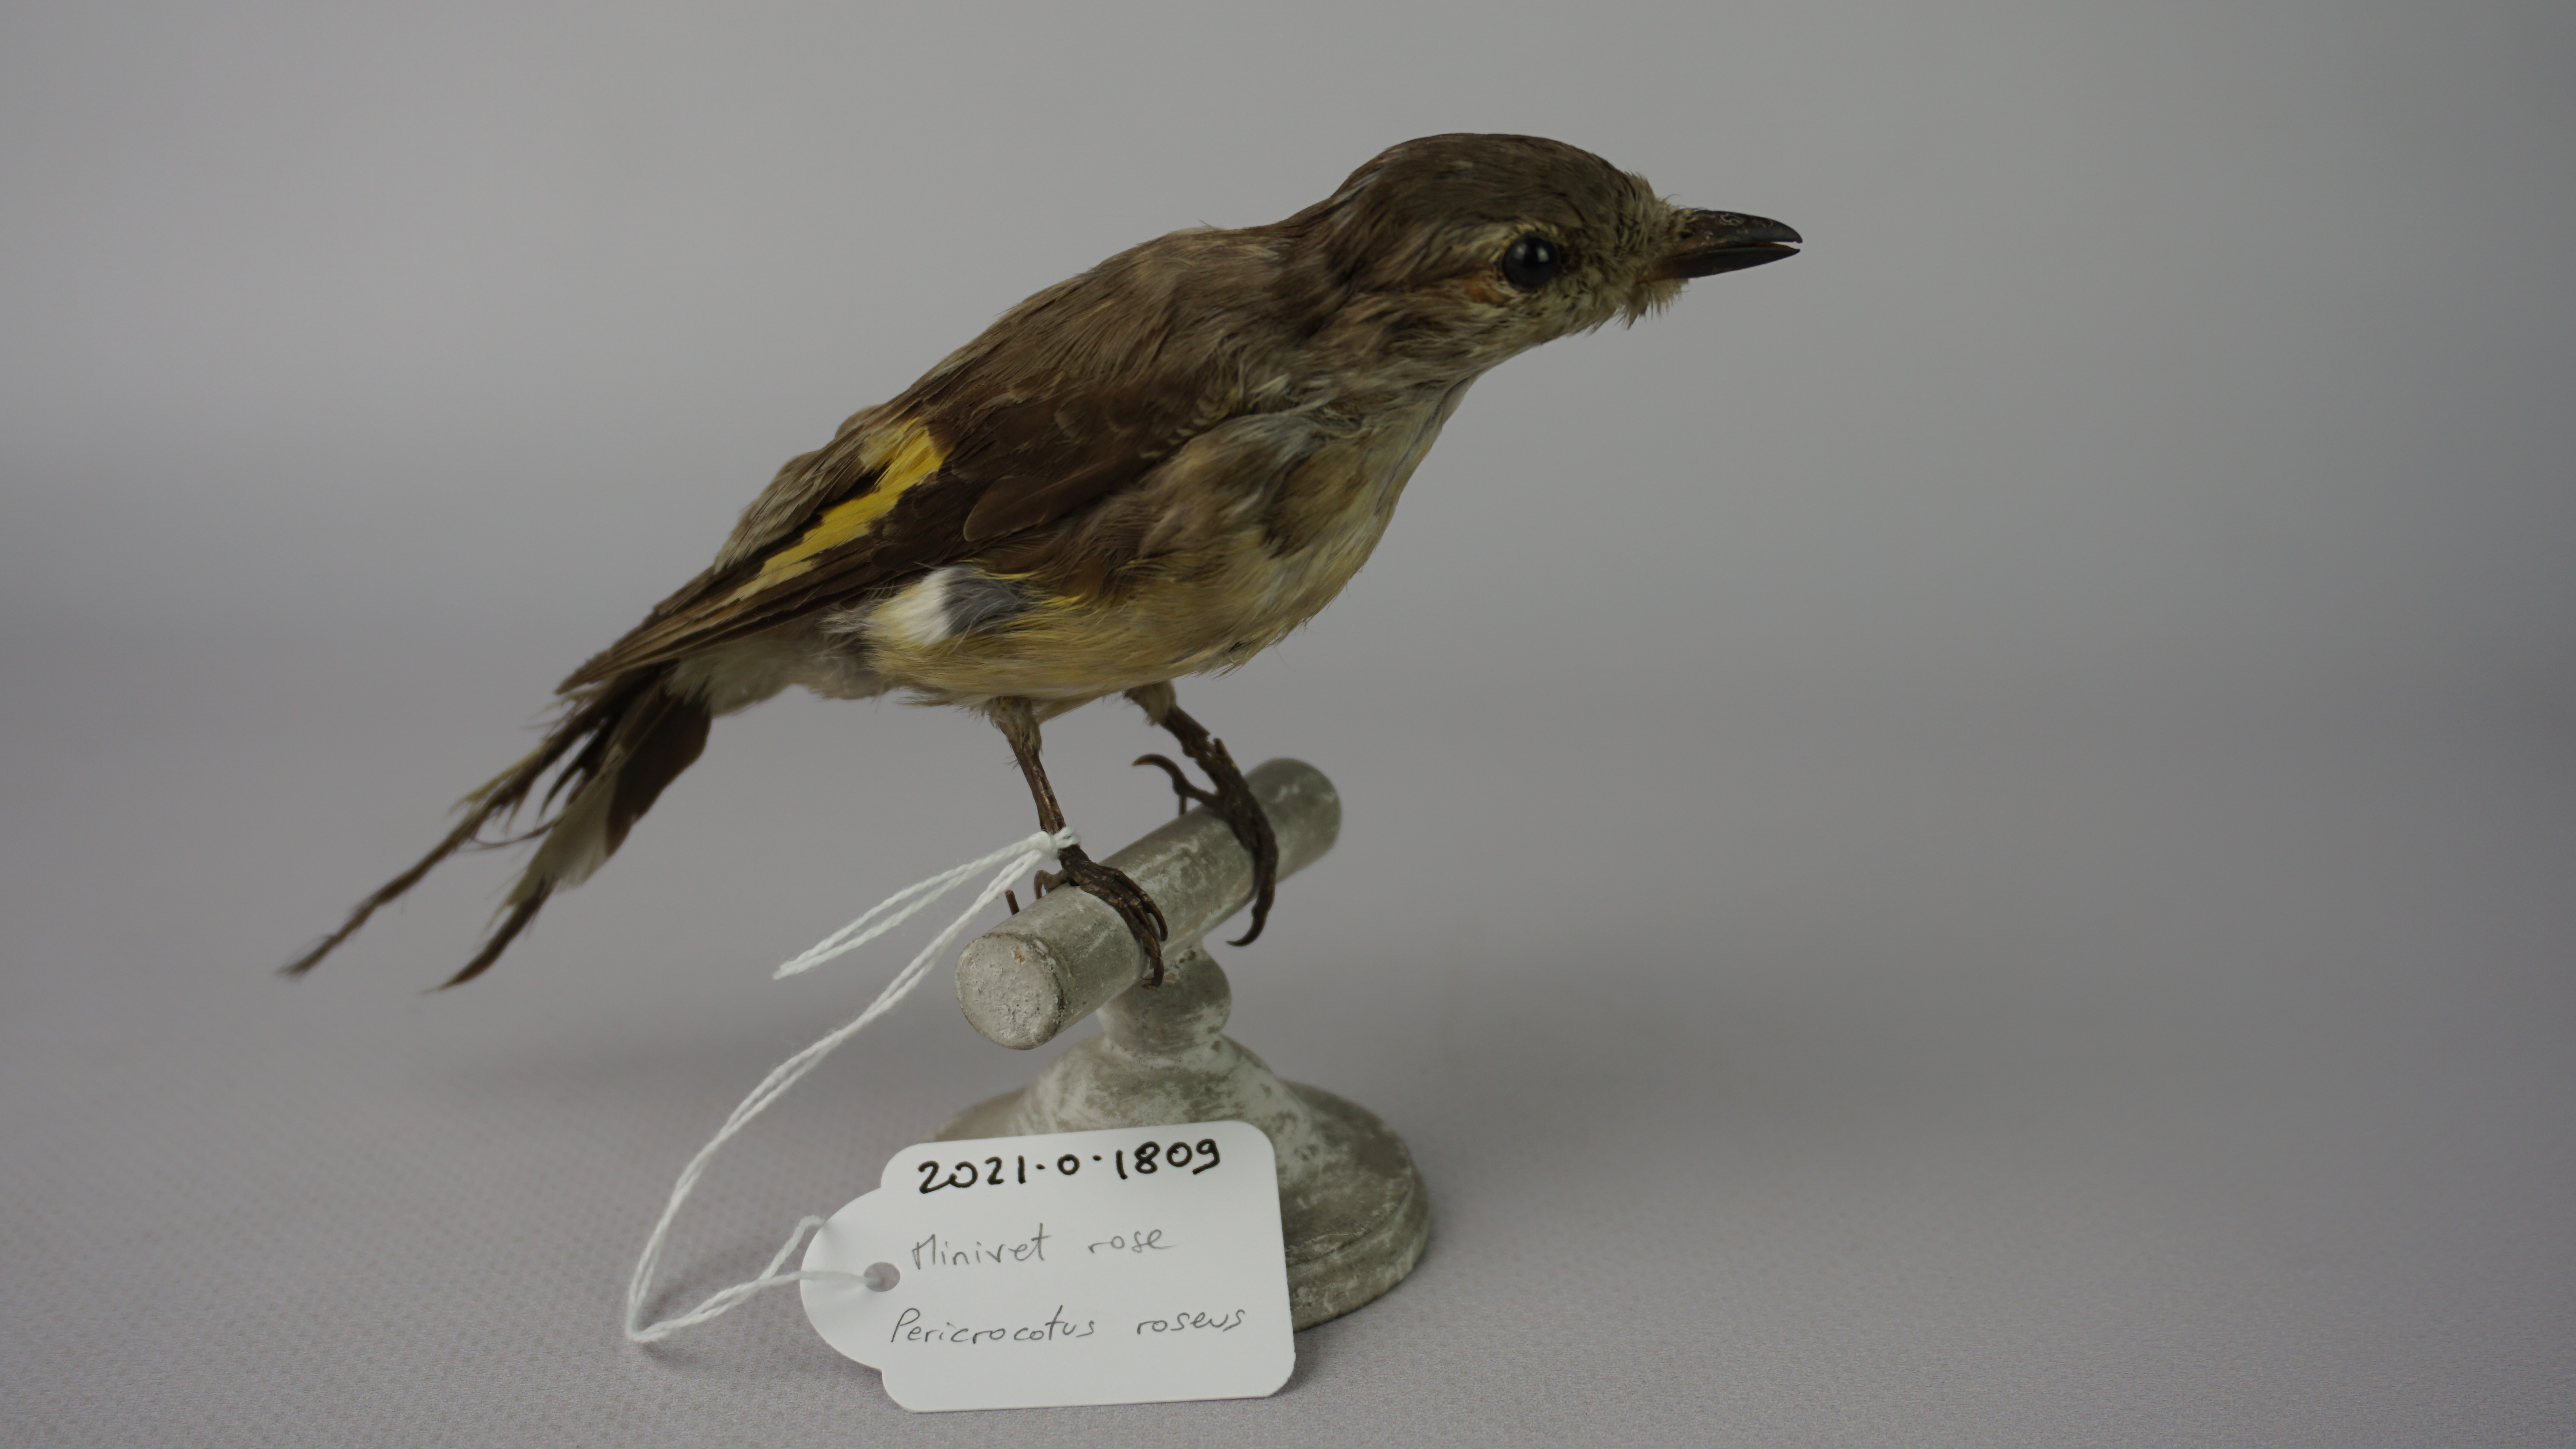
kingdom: Animalia
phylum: Chordata
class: Aves
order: Passeriformes
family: Campephagidae
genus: Pericrocotus
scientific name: Pericrocotus roseus
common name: Rosy minivet
